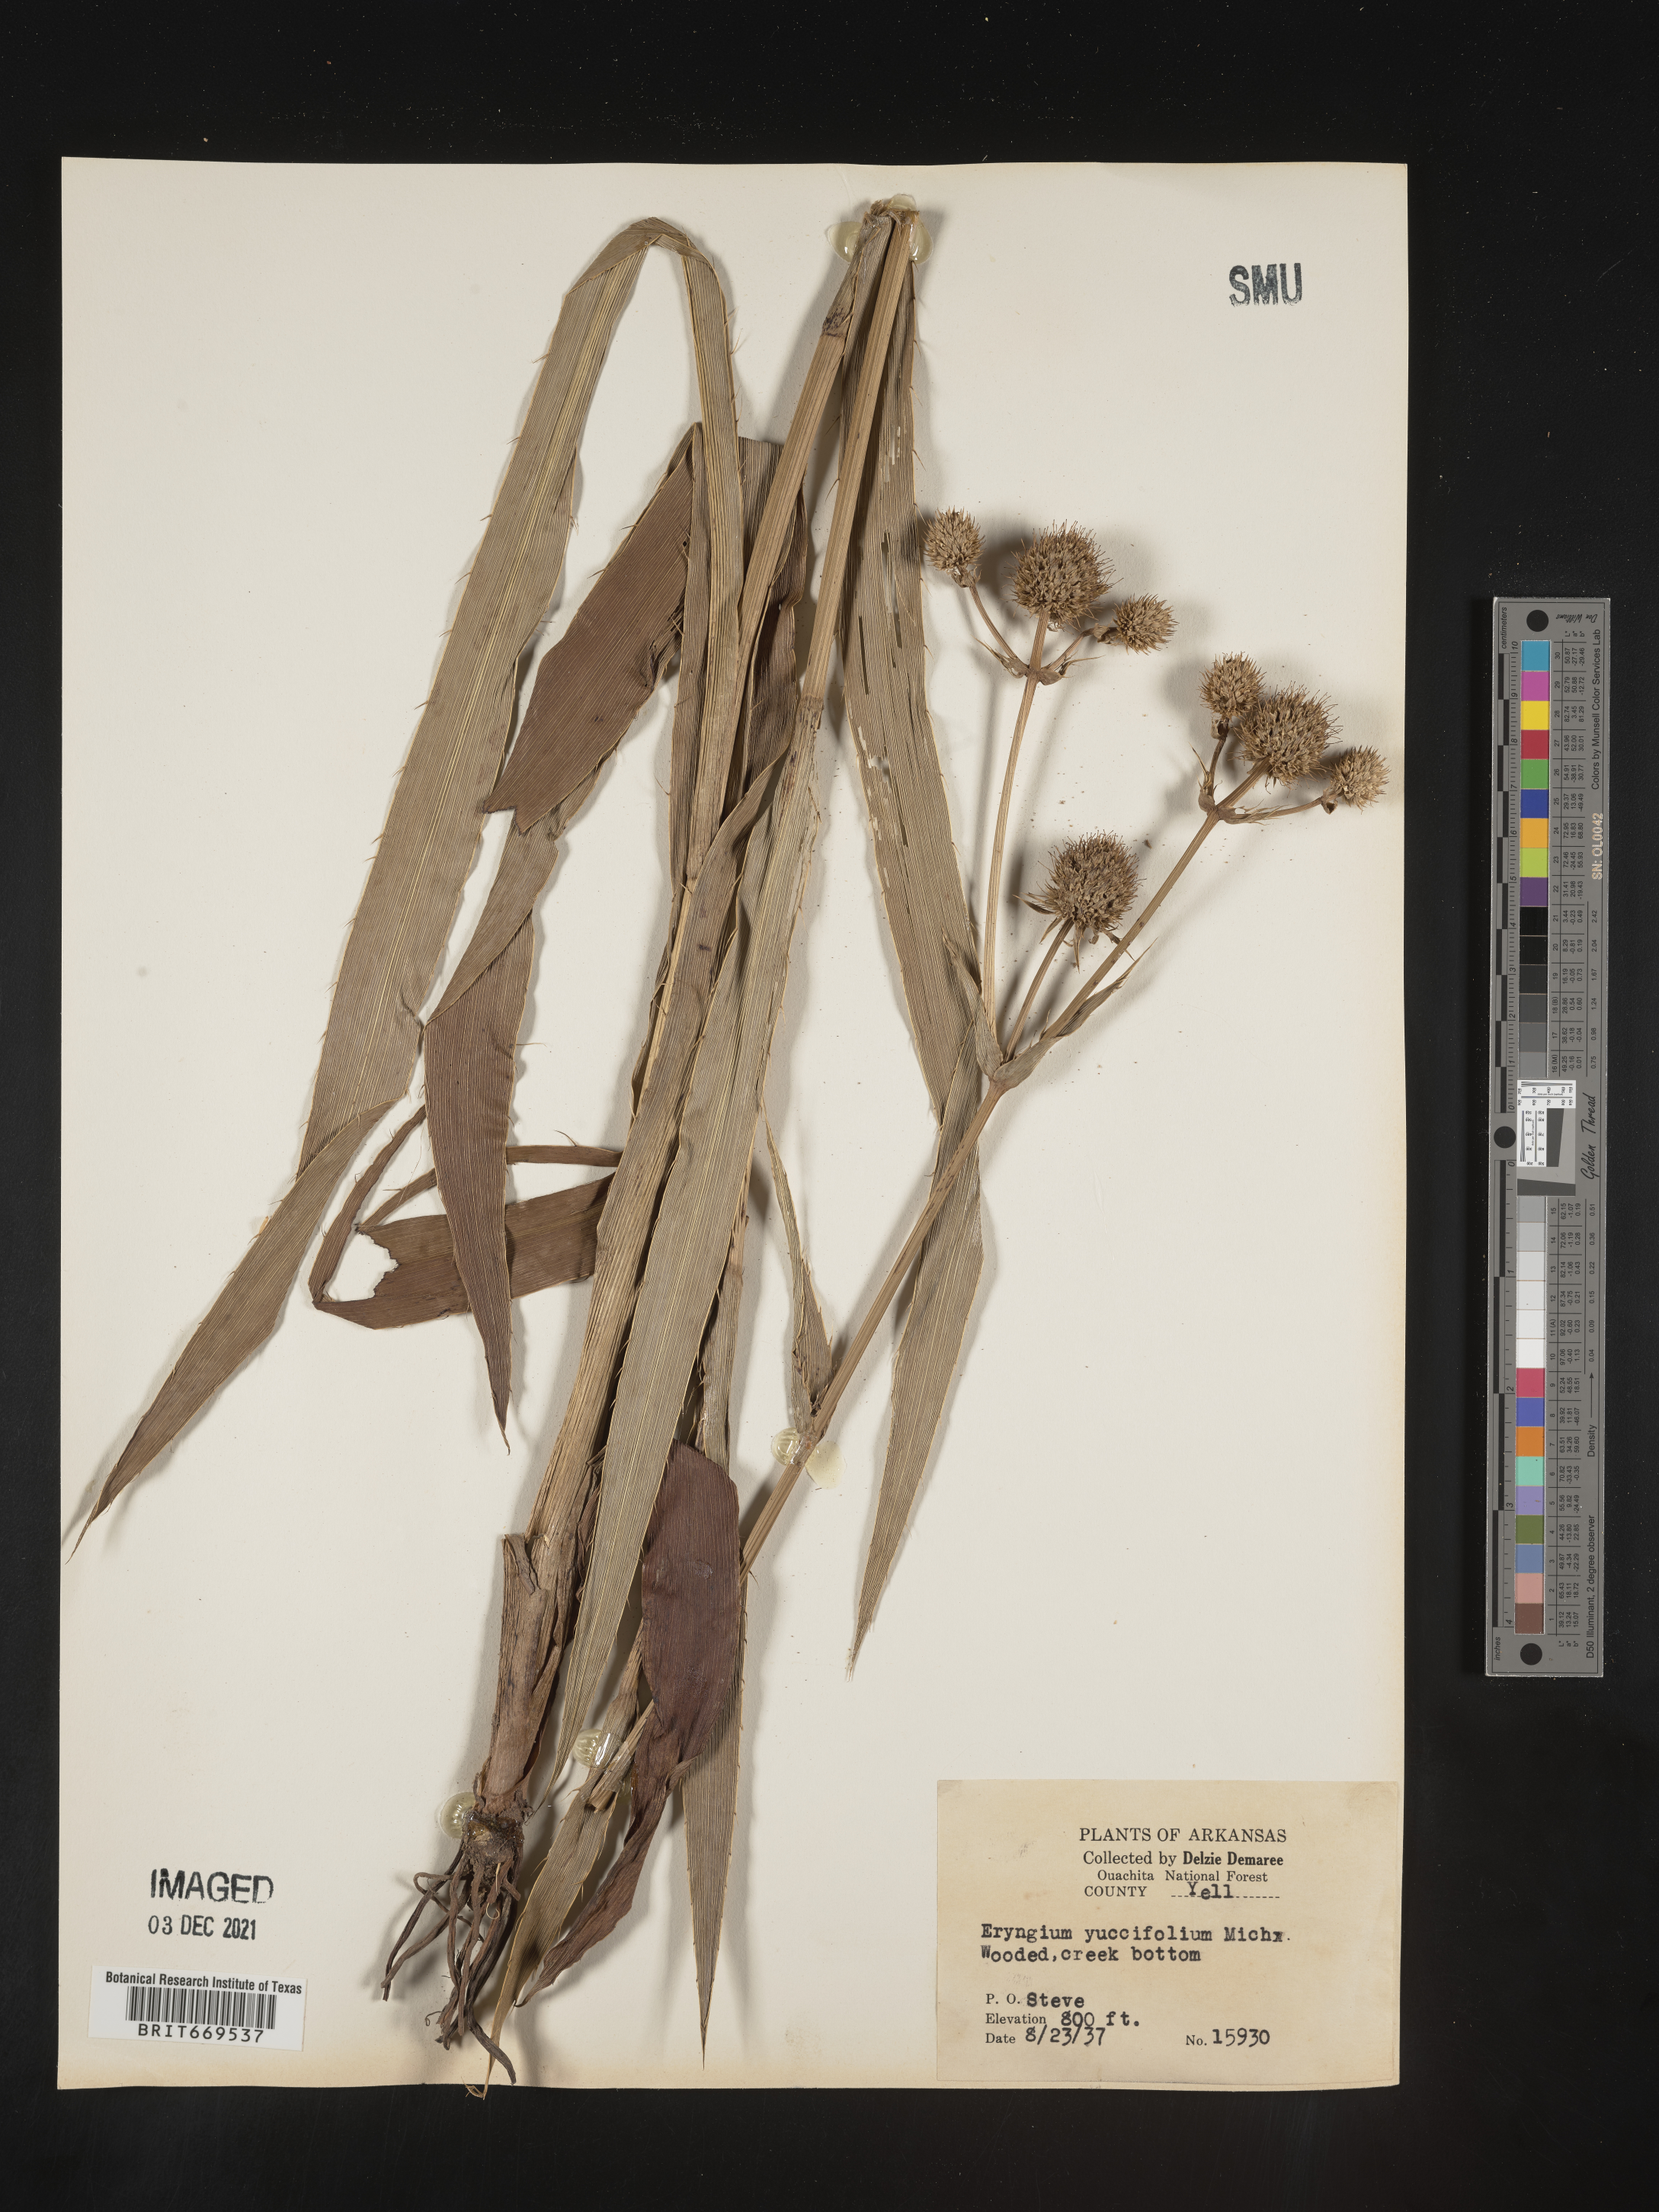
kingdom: Plantae
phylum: Tracheophyta
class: Magnoliopsida
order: Apiales
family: Apiaceae
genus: Eryngium
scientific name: Eryngium yuccifolium
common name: Button eryngo
